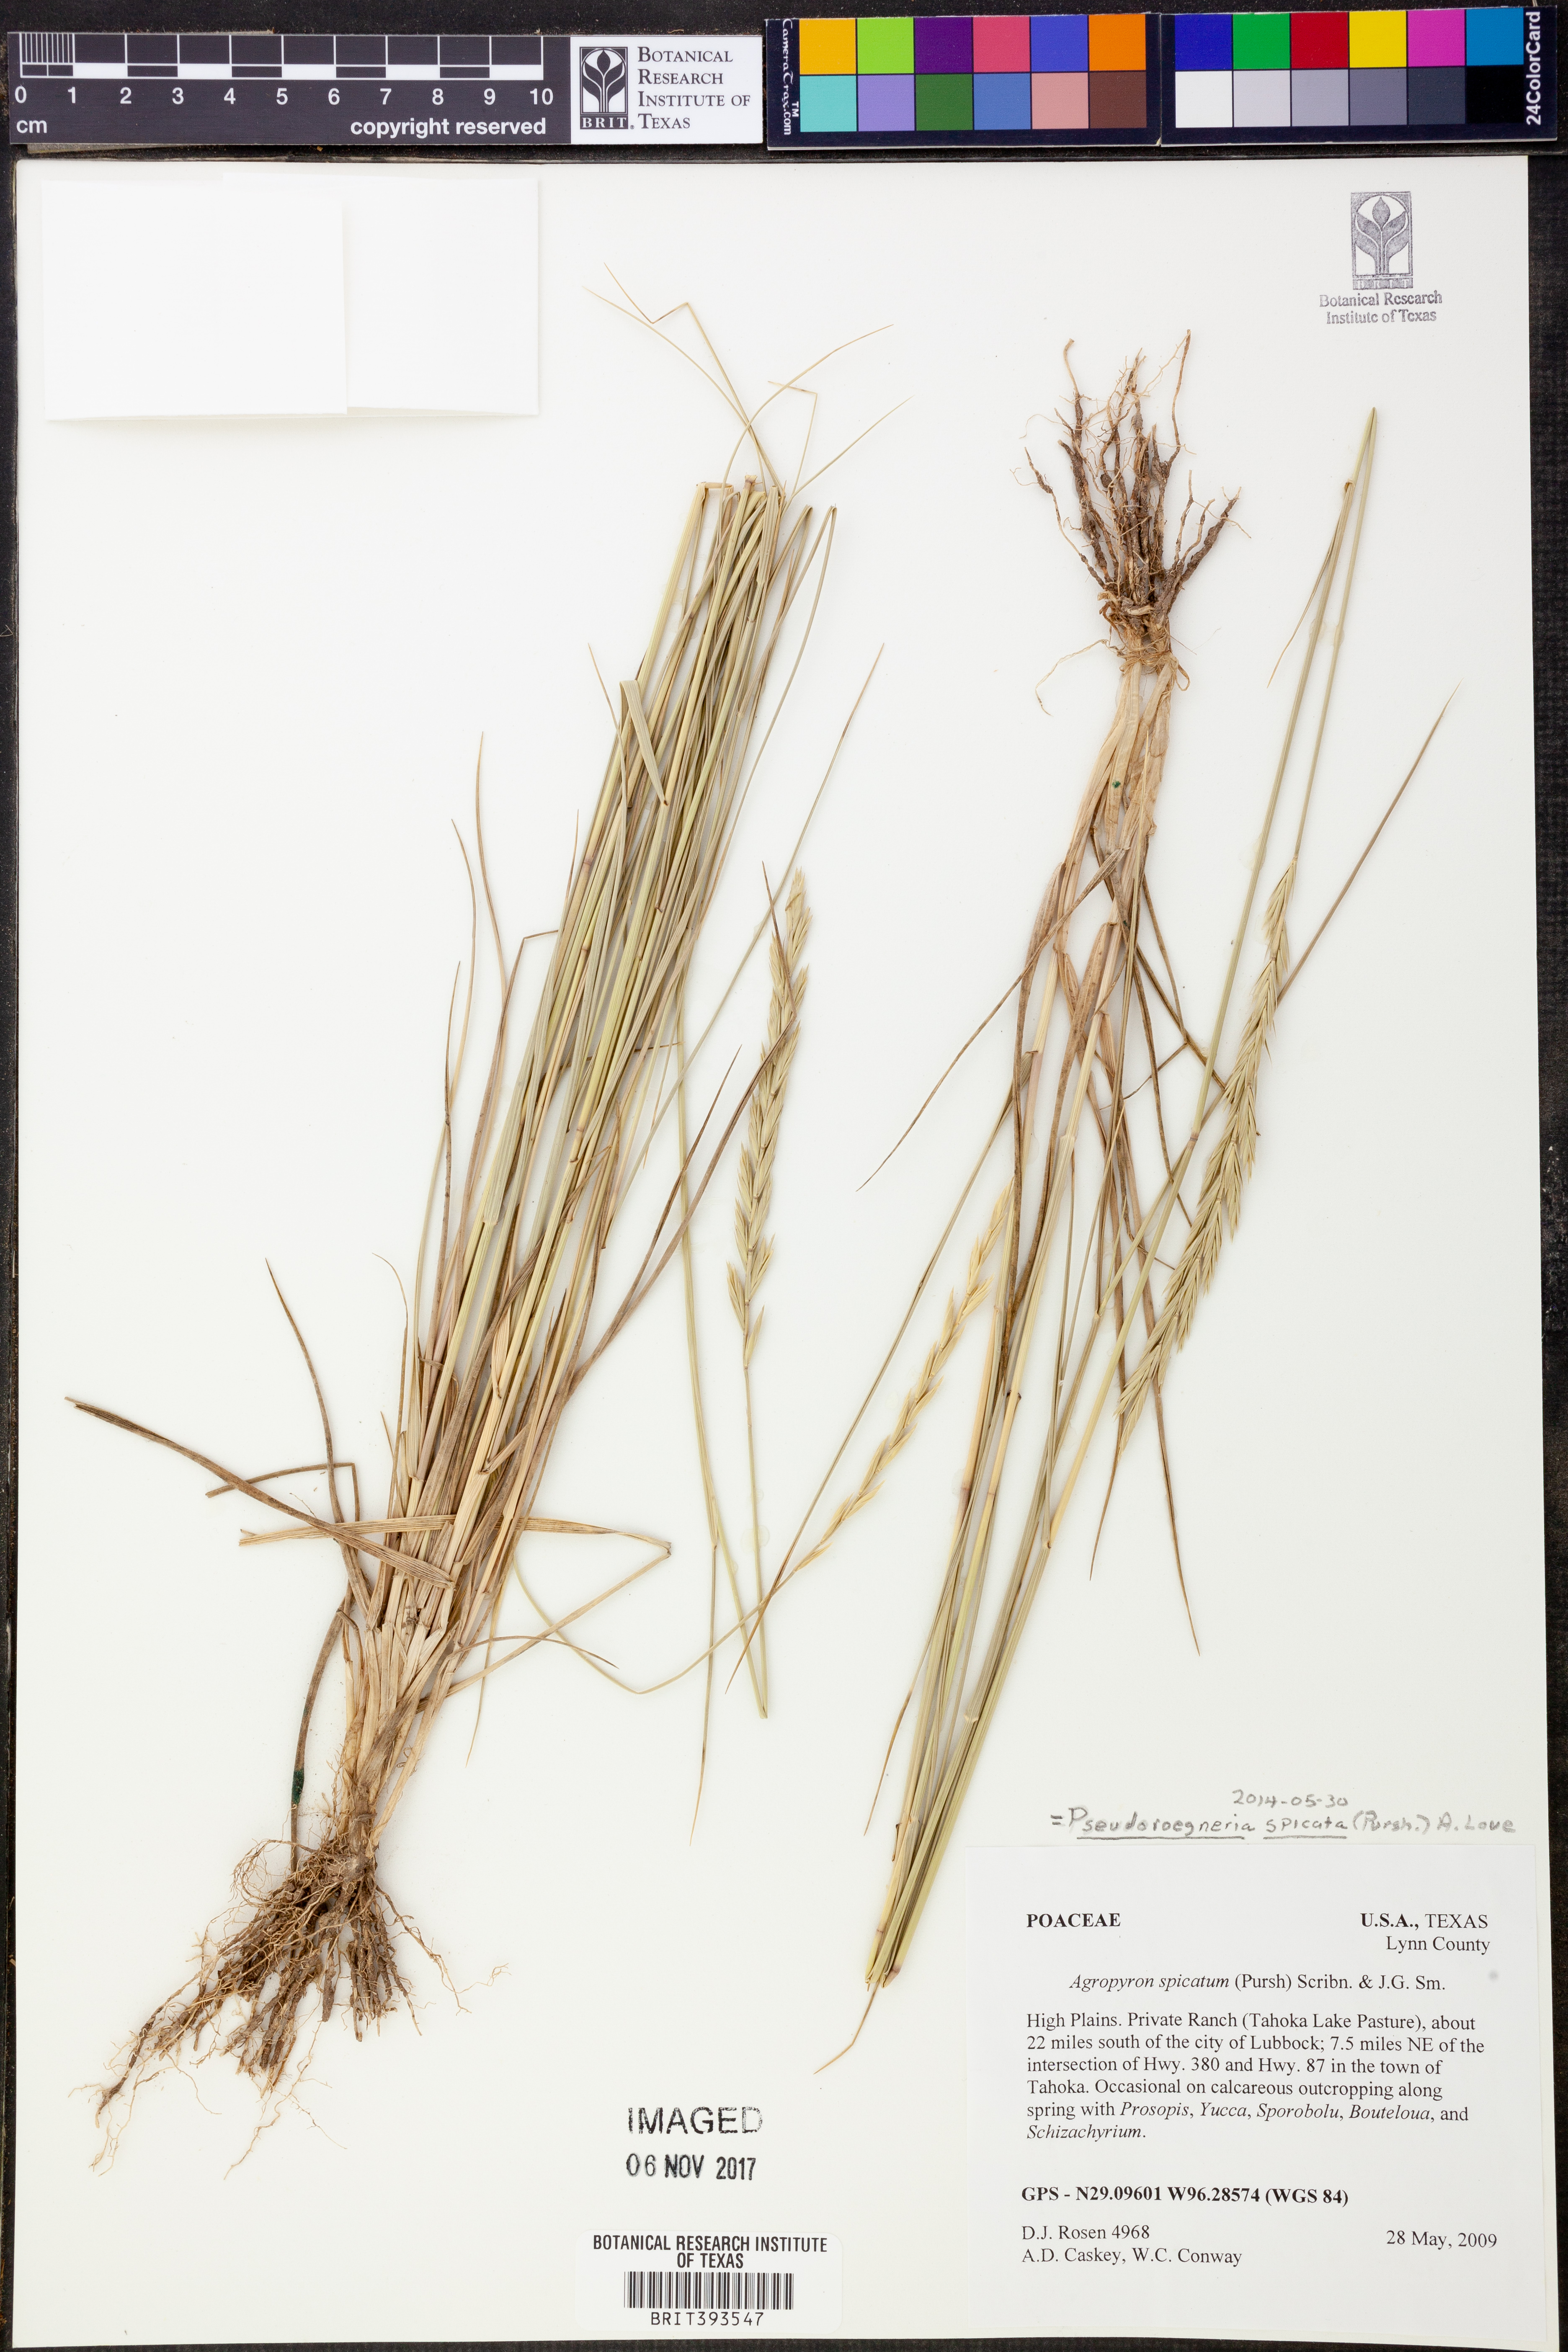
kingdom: Plantae
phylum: Tracheophyta
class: Liliopsida
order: Poales
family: Poaceae
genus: Pseudoroegneria
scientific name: Pseudoroegneria spicata
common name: Bluebunch wheatgrass
